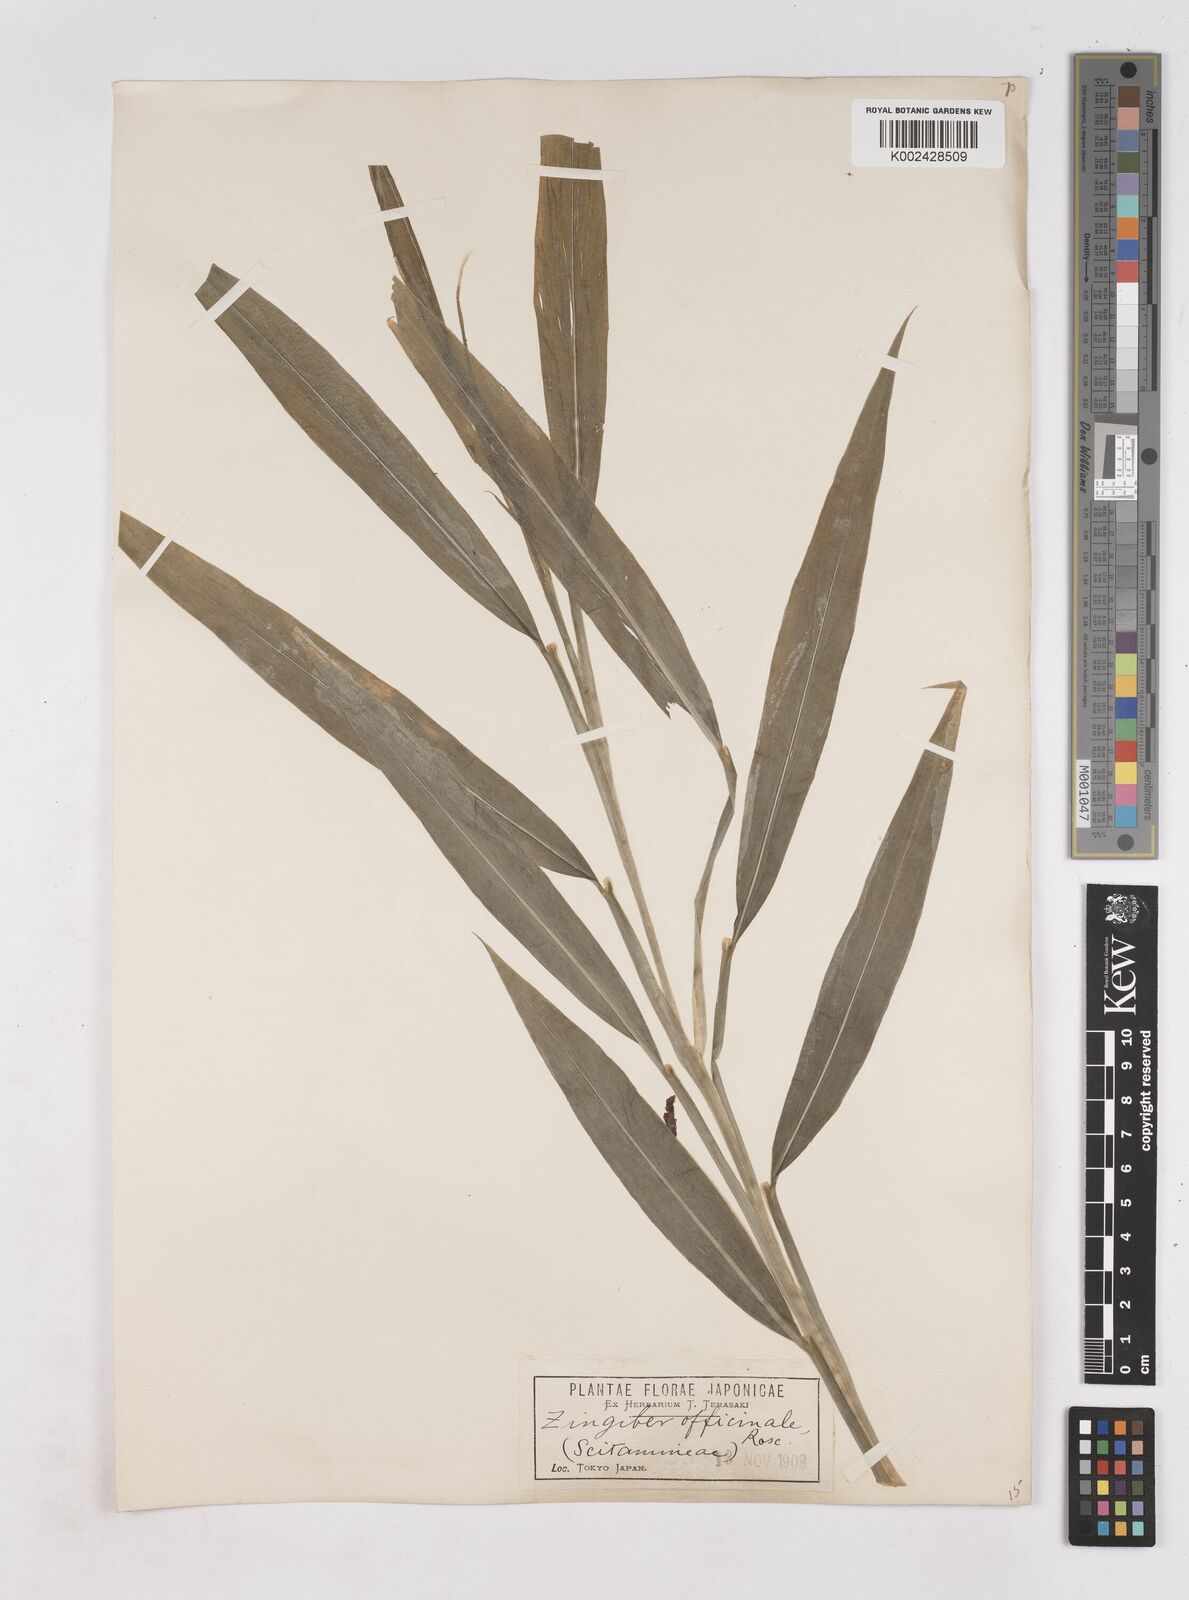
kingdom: Plantae
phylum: Tracheophyta
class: Liliopsida
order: Zingiberales
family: Zingiberaceae
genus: Zingiber
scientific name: Zingiber officinale
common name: Ginger
